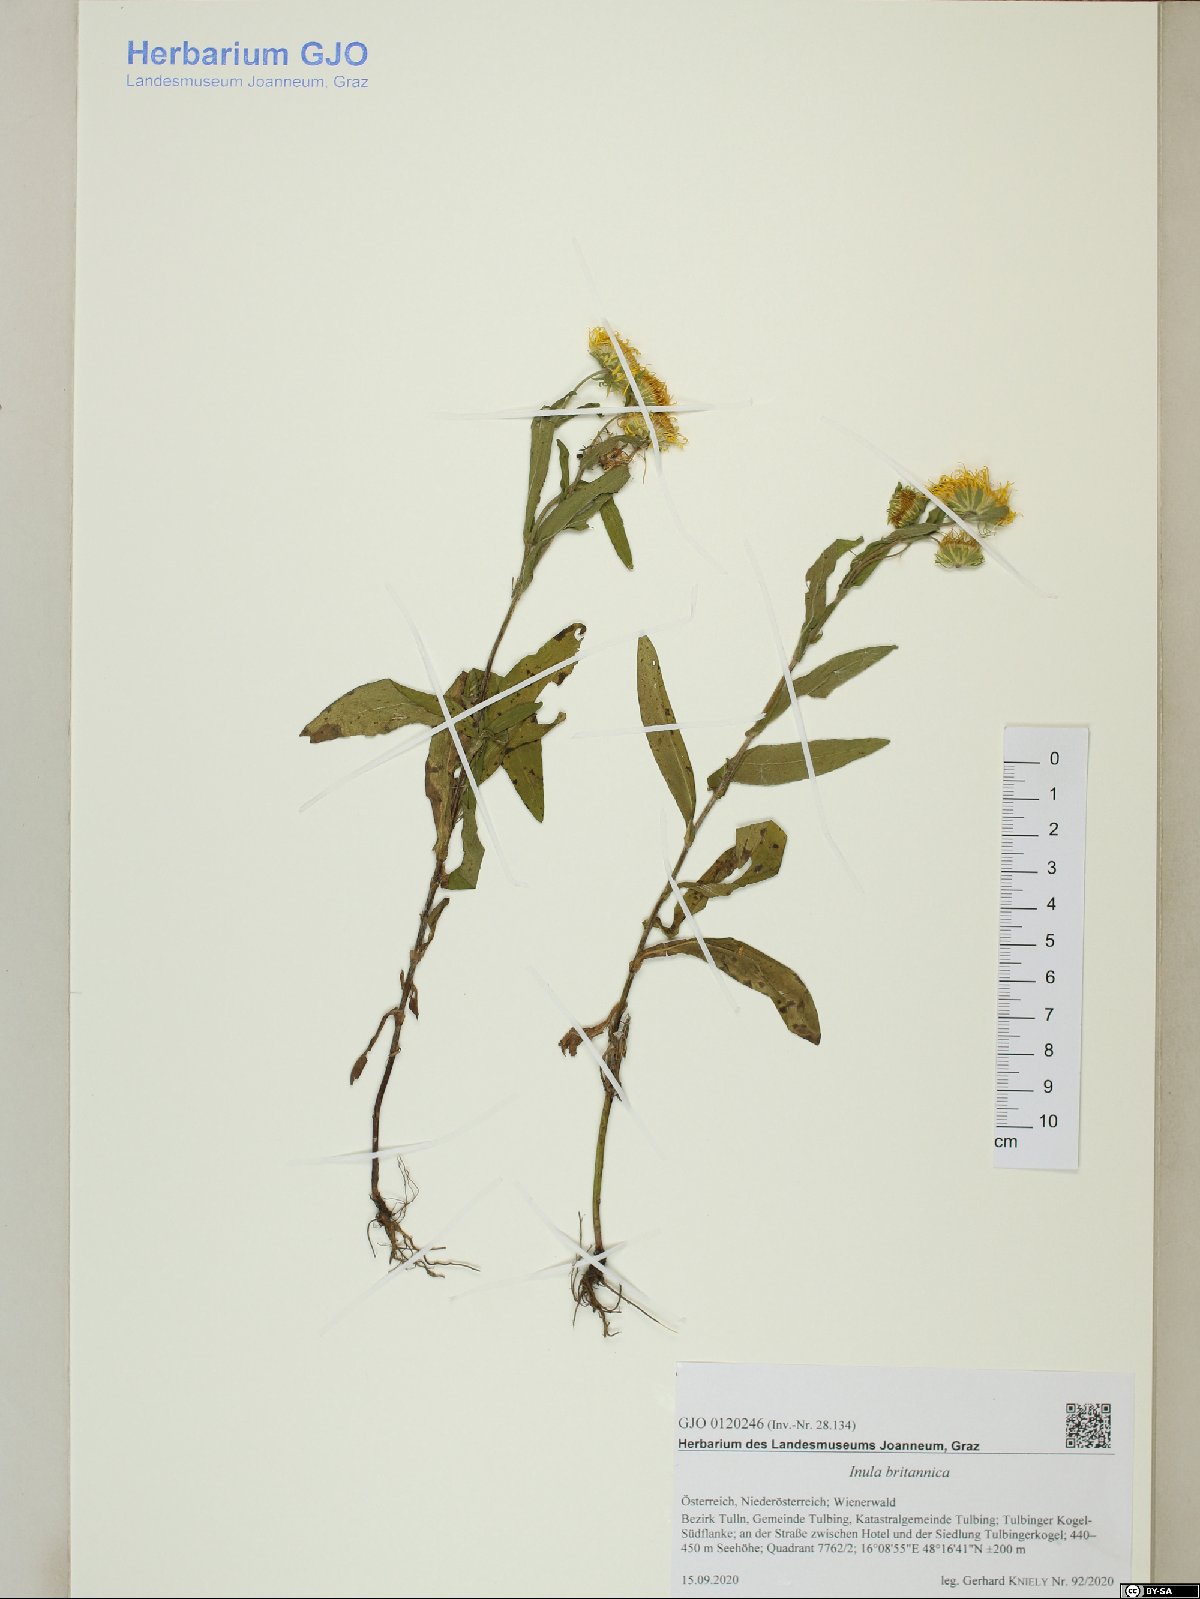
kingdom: Plantae
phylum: Tracheophyta
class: Magnoliopsida
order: Asterales
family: Asteraceae
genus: Pentanema
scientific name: Pentanema britannicum
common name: British elecampane
